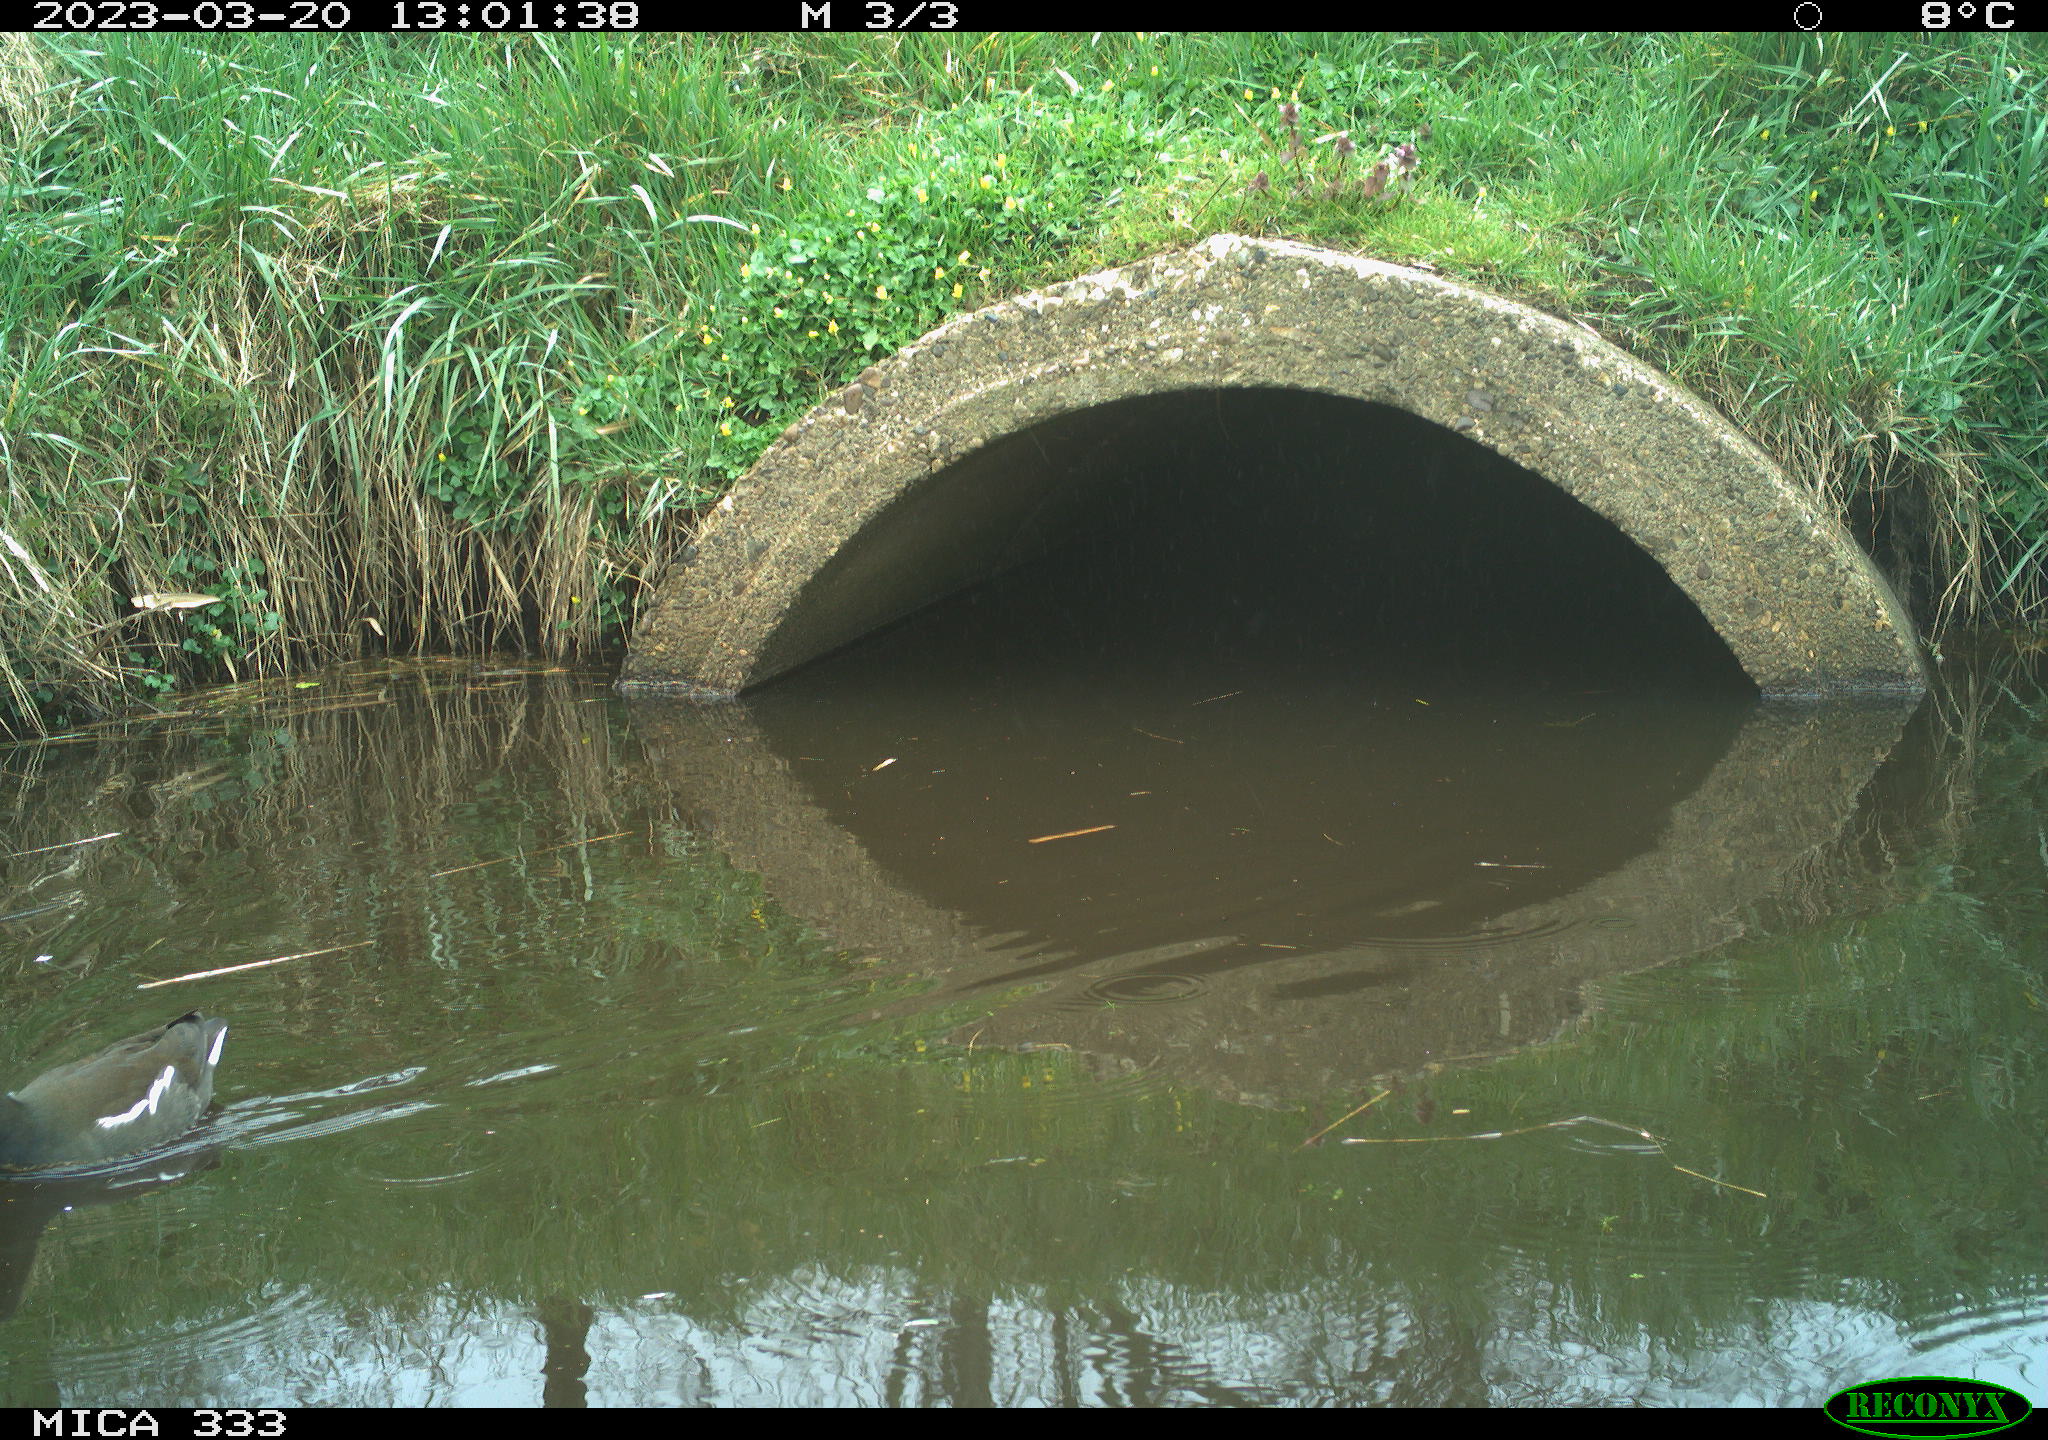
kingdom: Animalia
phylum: Chordata
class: Aves
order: Gruiformes
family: Rallidae
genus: Gallinula
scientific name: Gallinula chloropus
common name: Common moorhen
